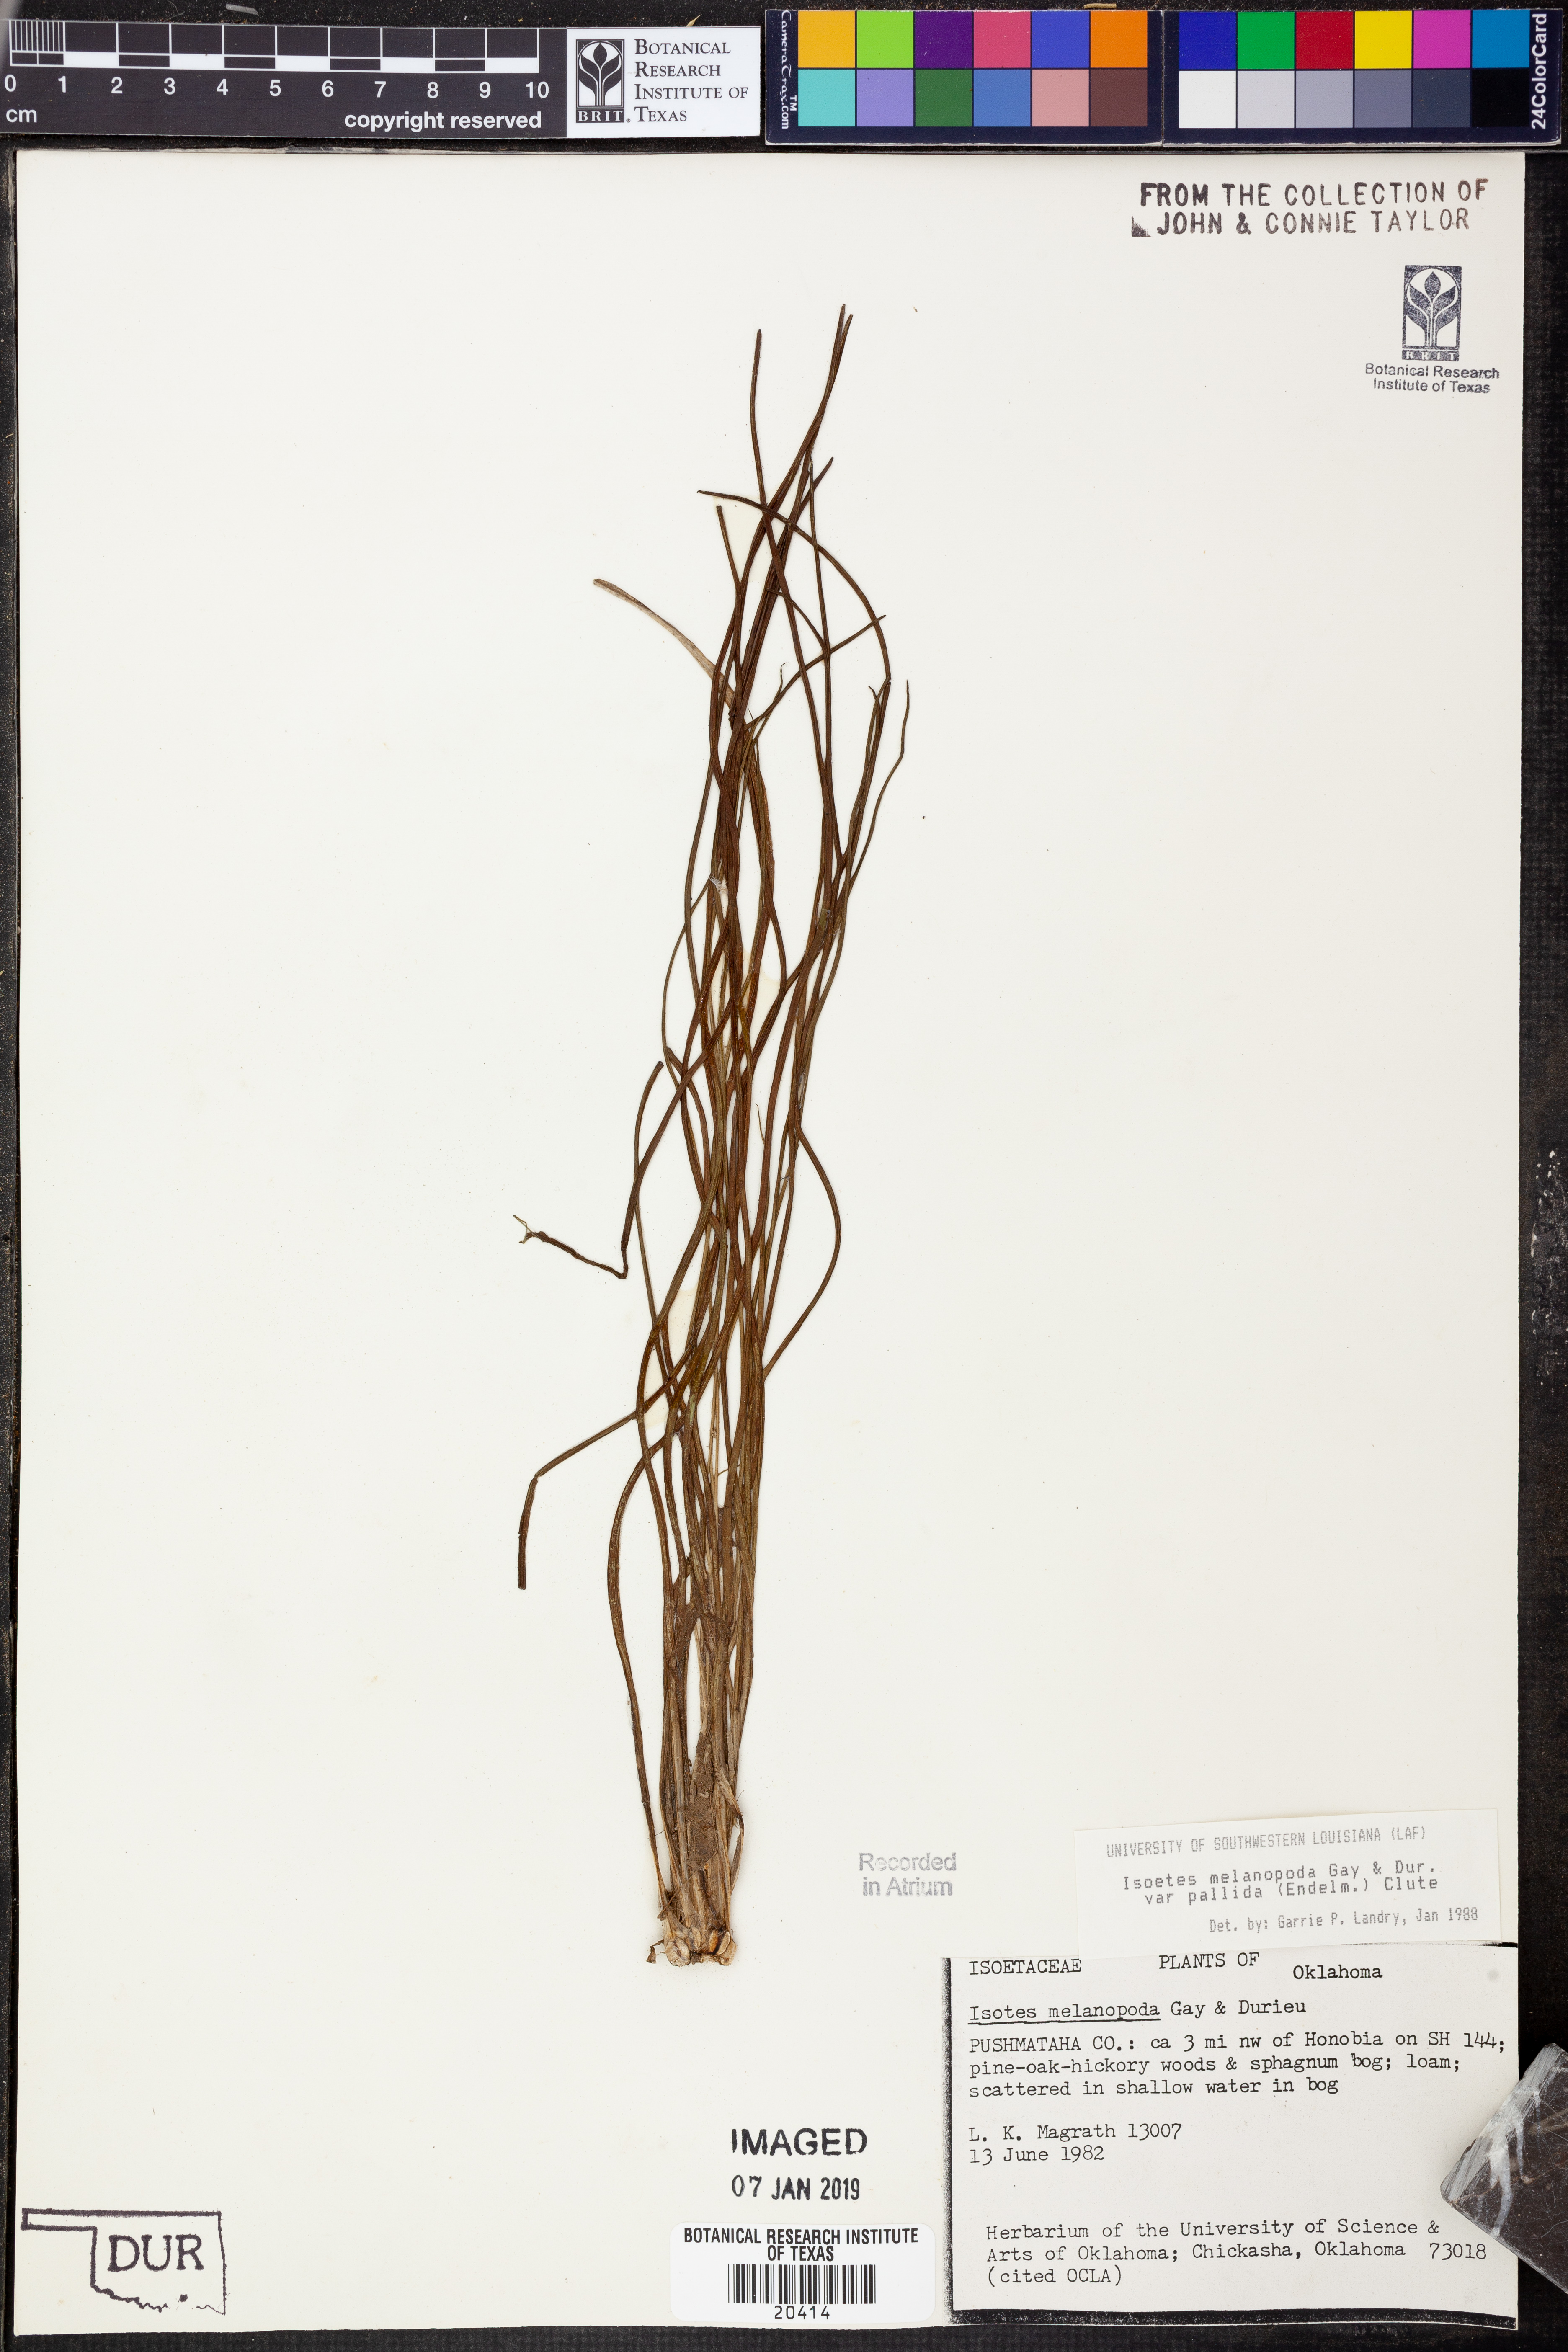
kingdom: Plantae
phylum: Tracheophyta
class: Lycopodiopsida
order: Isoetales
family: Isoetaceae
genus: Isoetes
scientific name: Isoetes melanopoda
